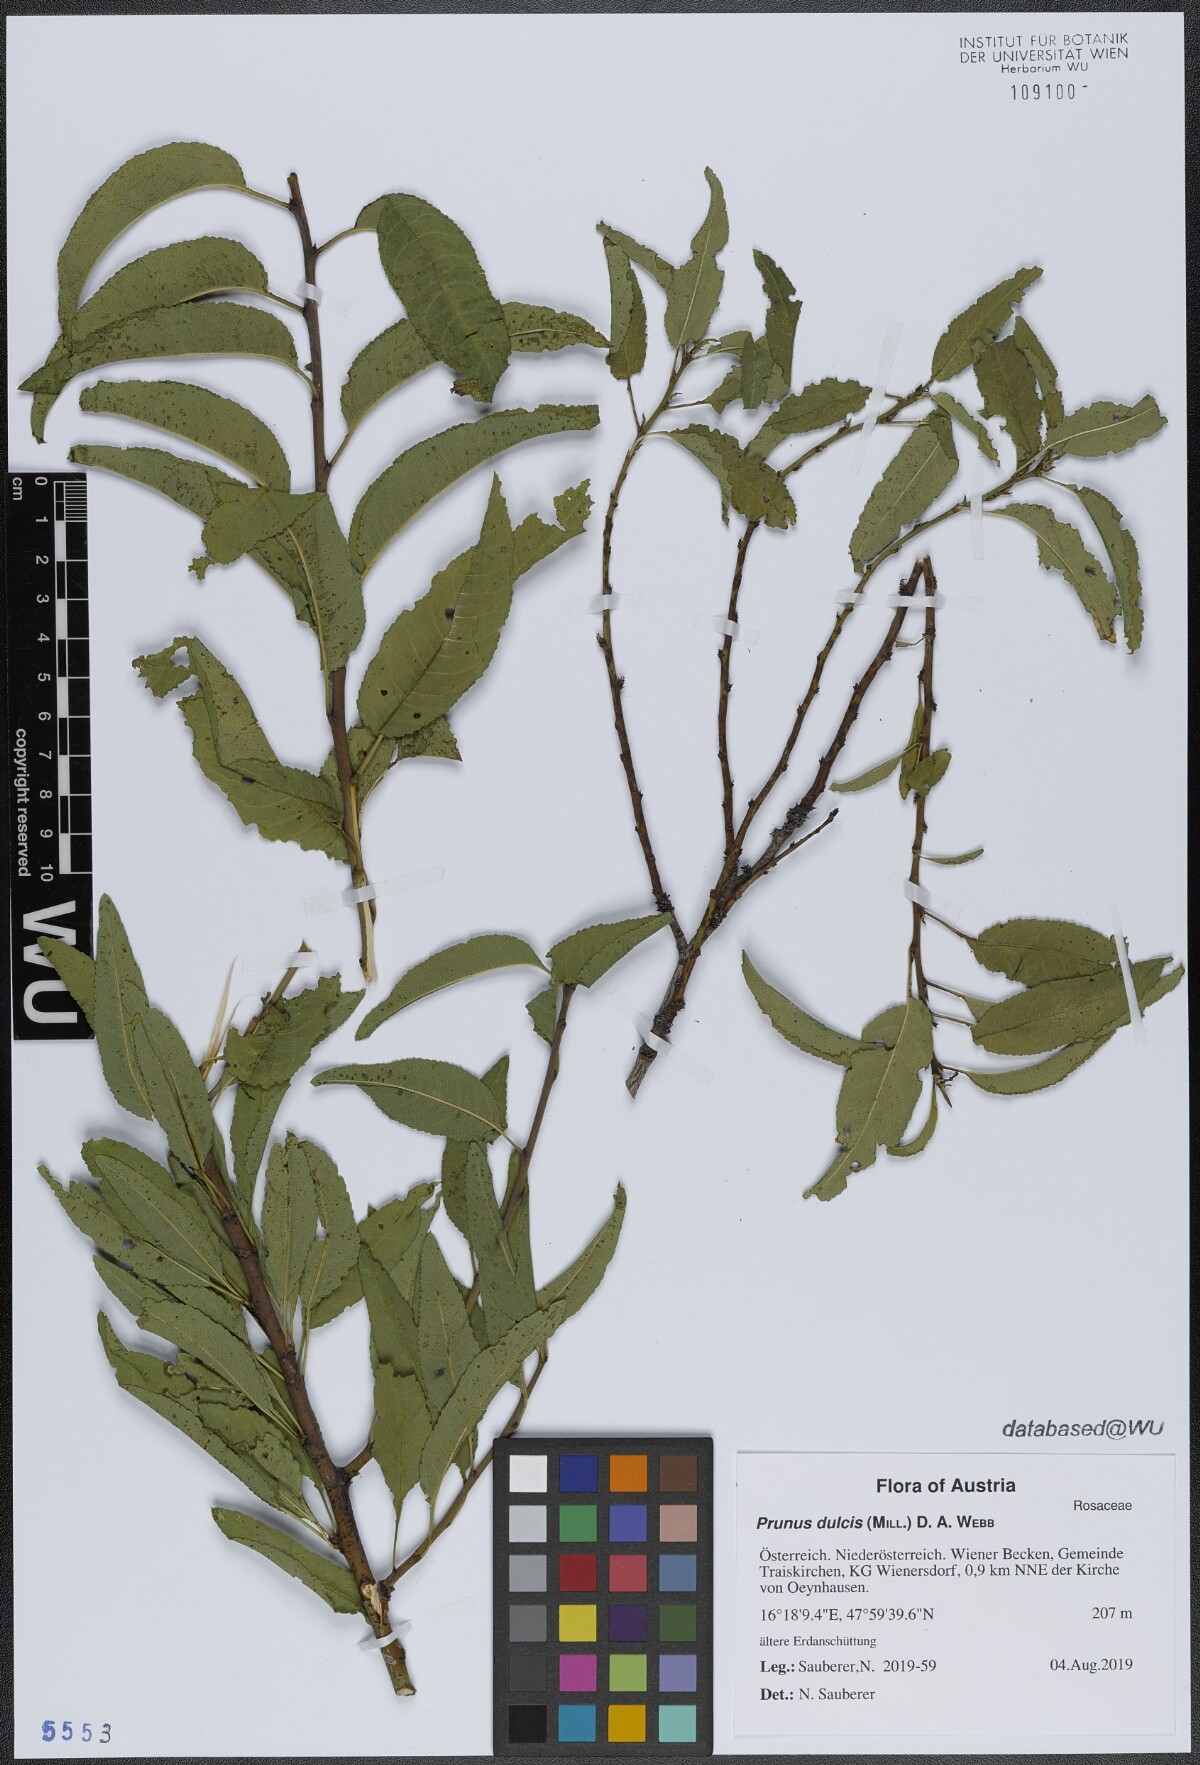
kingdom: Plantae
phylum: Tracheophyta
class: Magnoliopsida
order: Rosales
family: Rosaceae
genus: Prunus
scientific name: Prunus amygdalus
